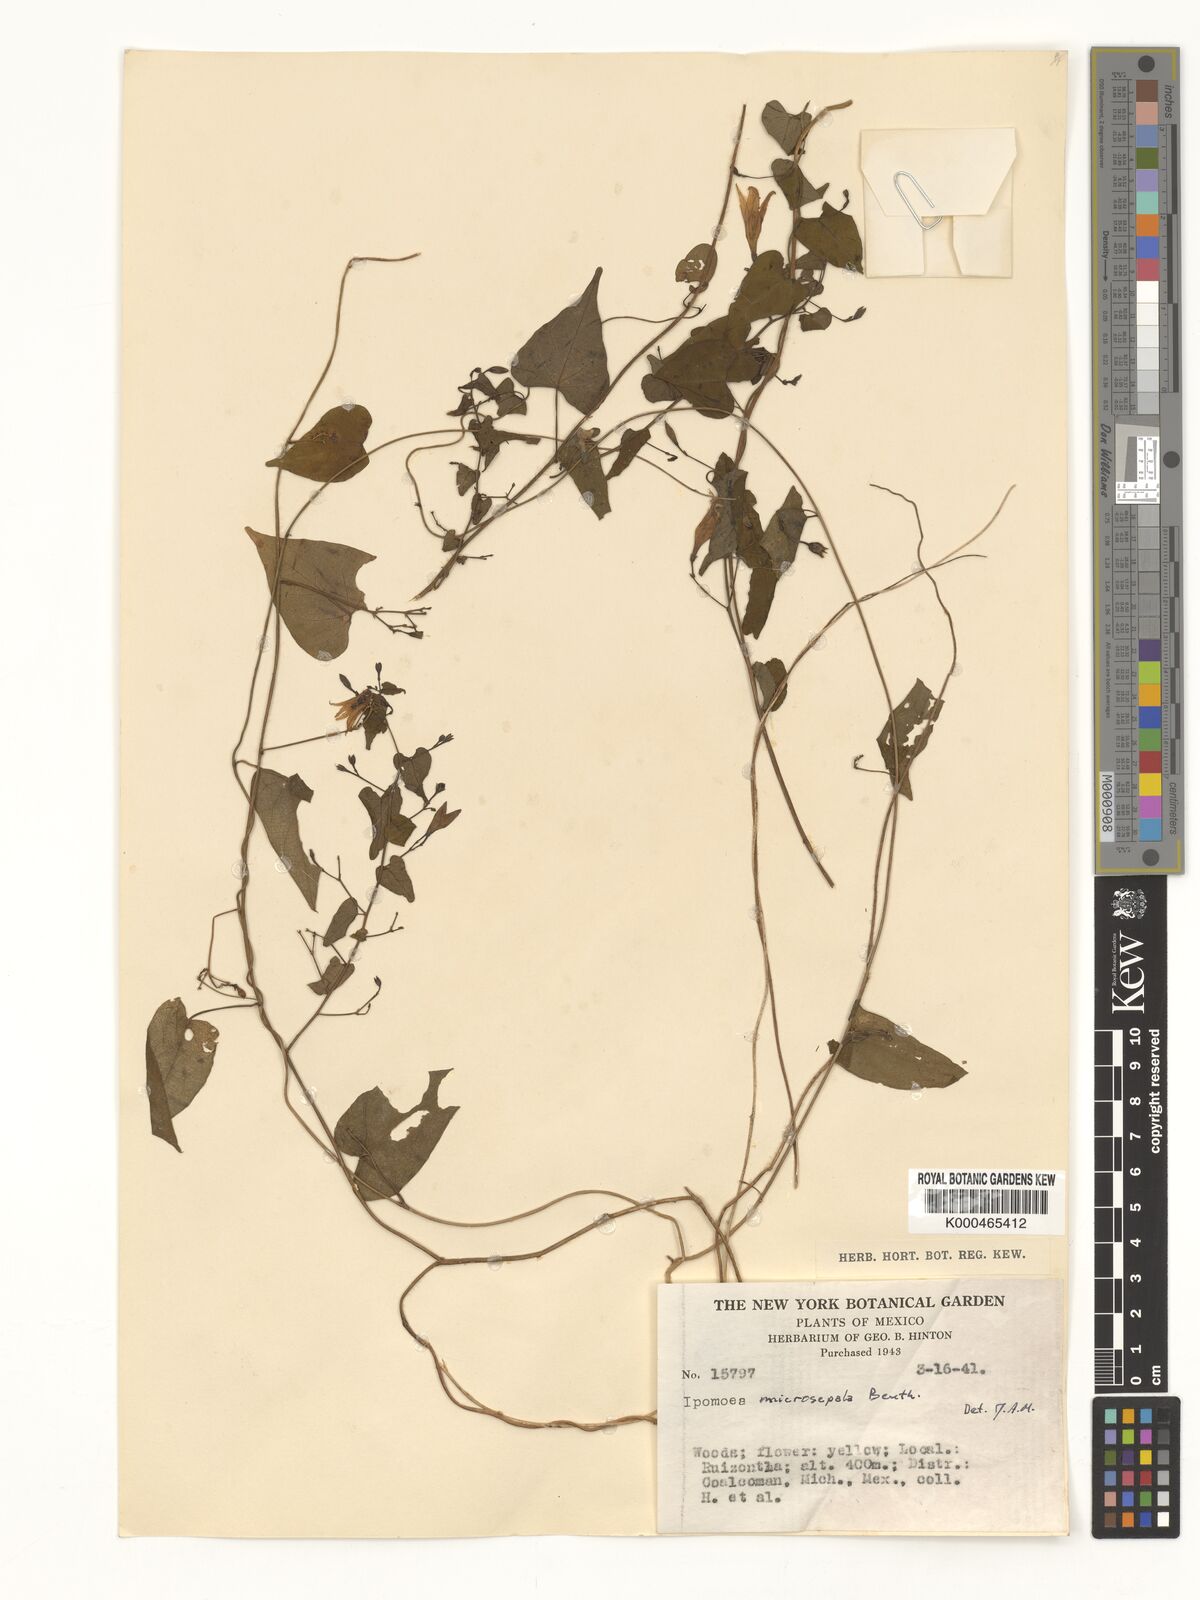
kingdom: Plantae
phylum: Tracheophyta
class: Magnoliopsida
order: Solanales
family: Convolvulaceae
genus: Ipomoea
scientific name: Ipomoea microsepala
